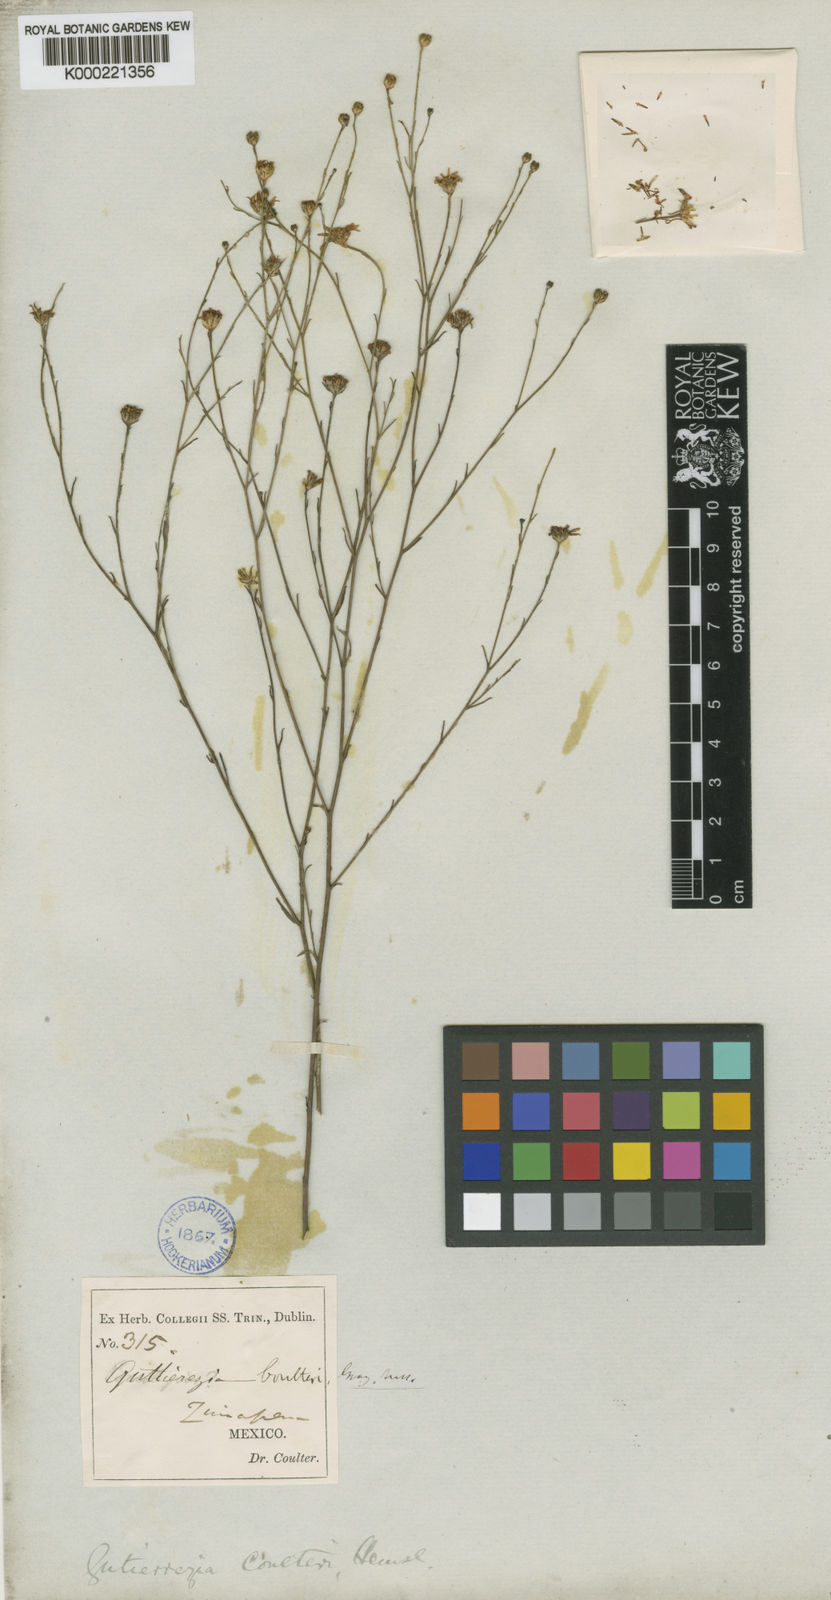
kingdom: Plantae
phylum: Tracheophyta
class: Magnoliopsida
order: Asterales
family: Asteraceae
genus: Gutierrezia
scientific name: Gutierrezia sphaerocephala
